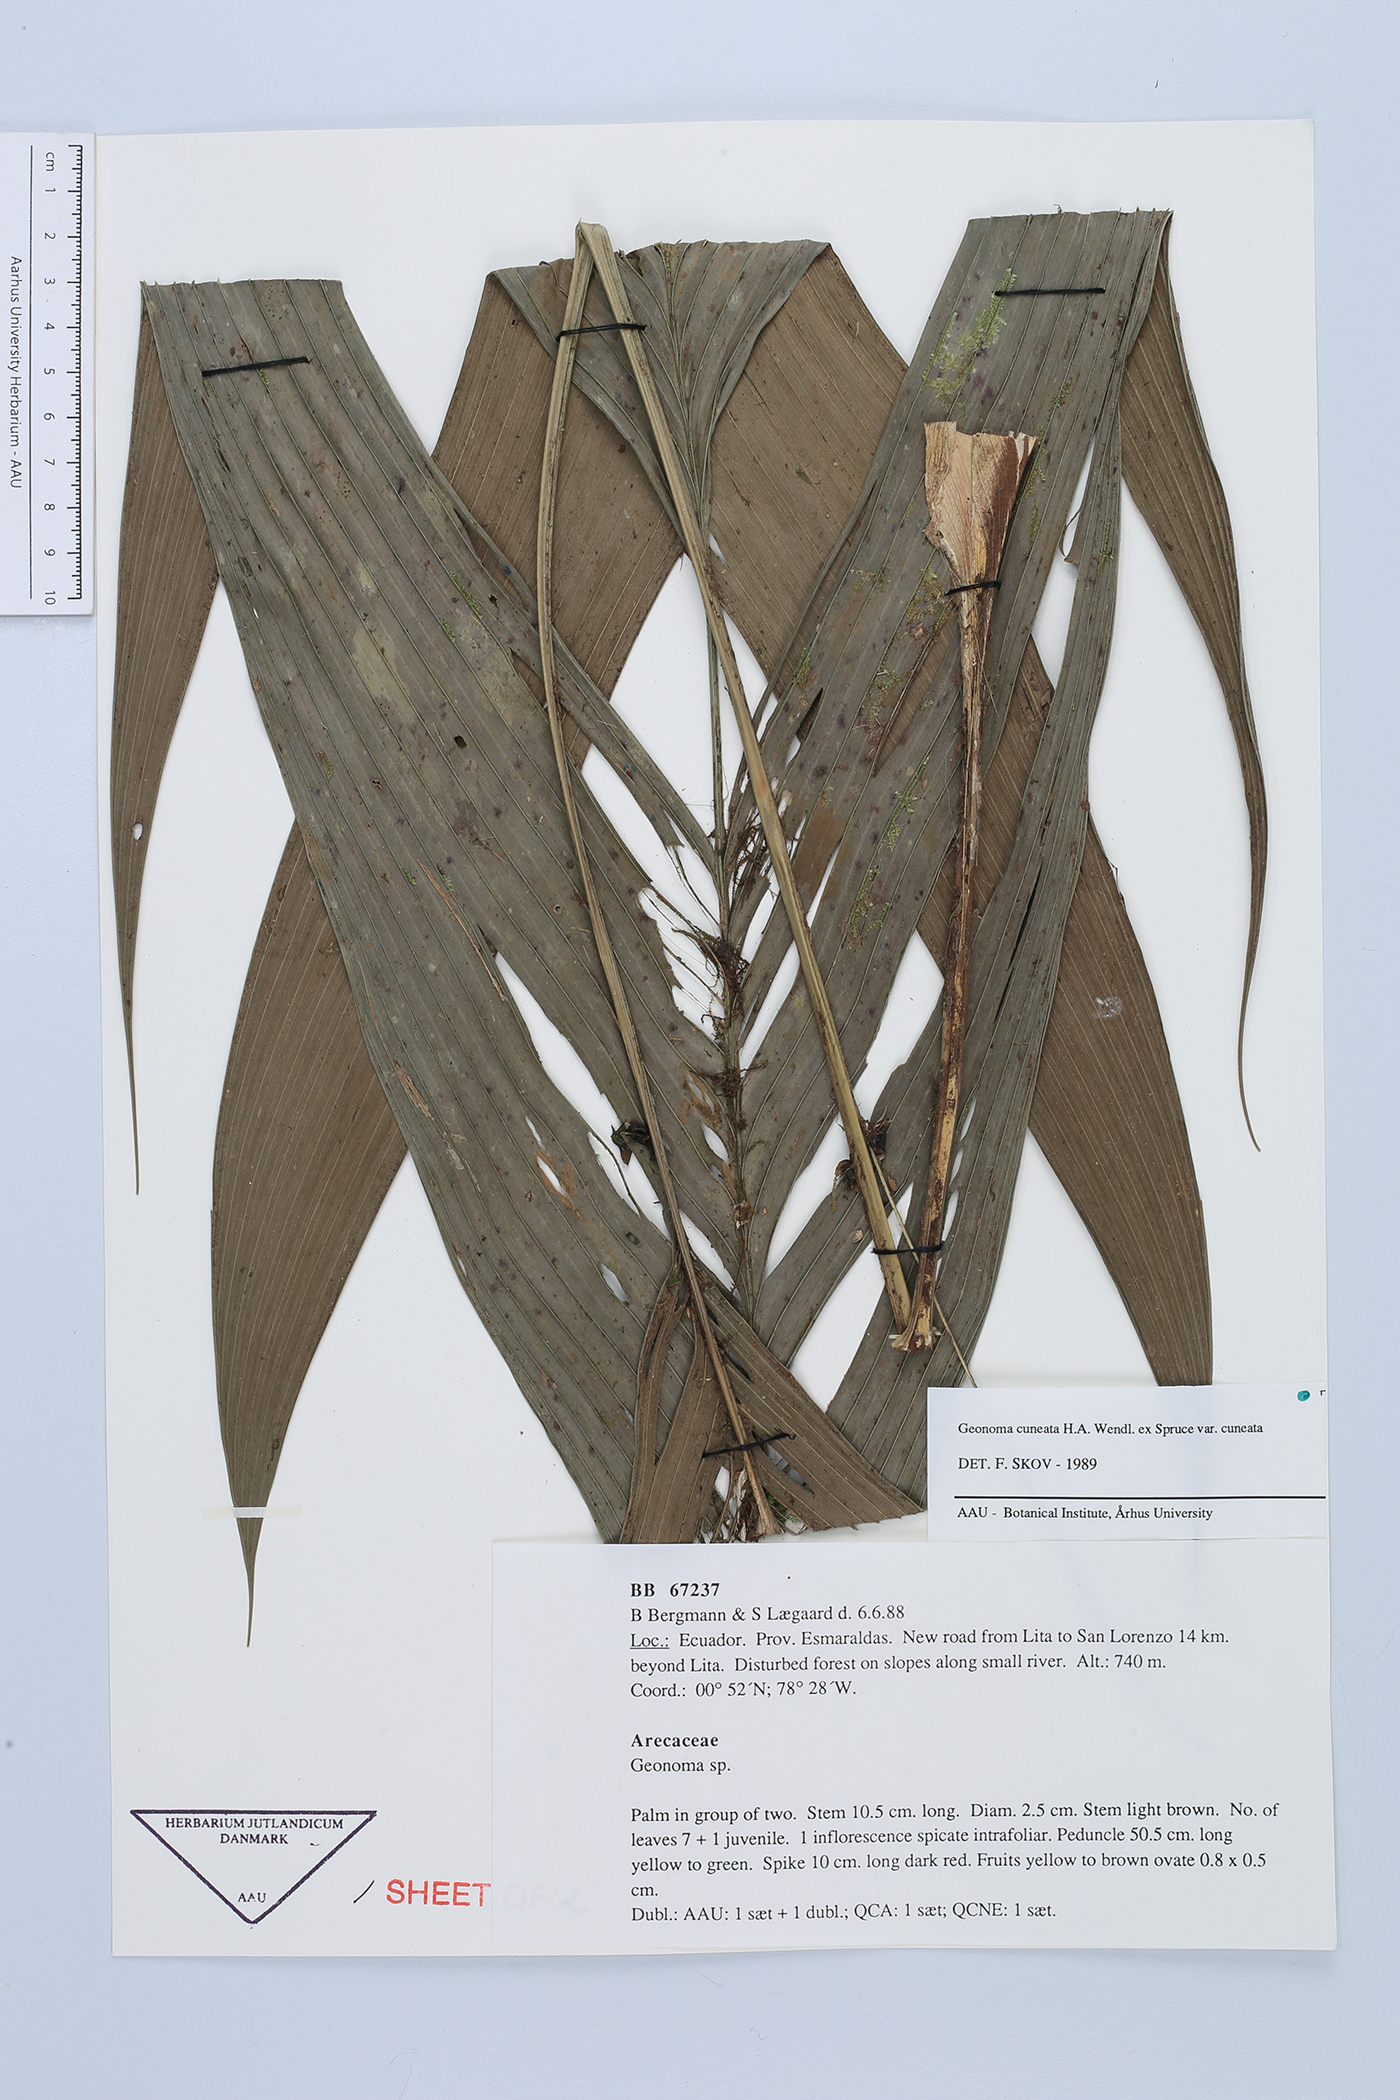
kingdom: Plantae
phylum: Tracheophyta
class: Liliopsida
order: Arecales
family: Arecaceae
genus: Geonoma
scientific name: Geonoma cuneata
